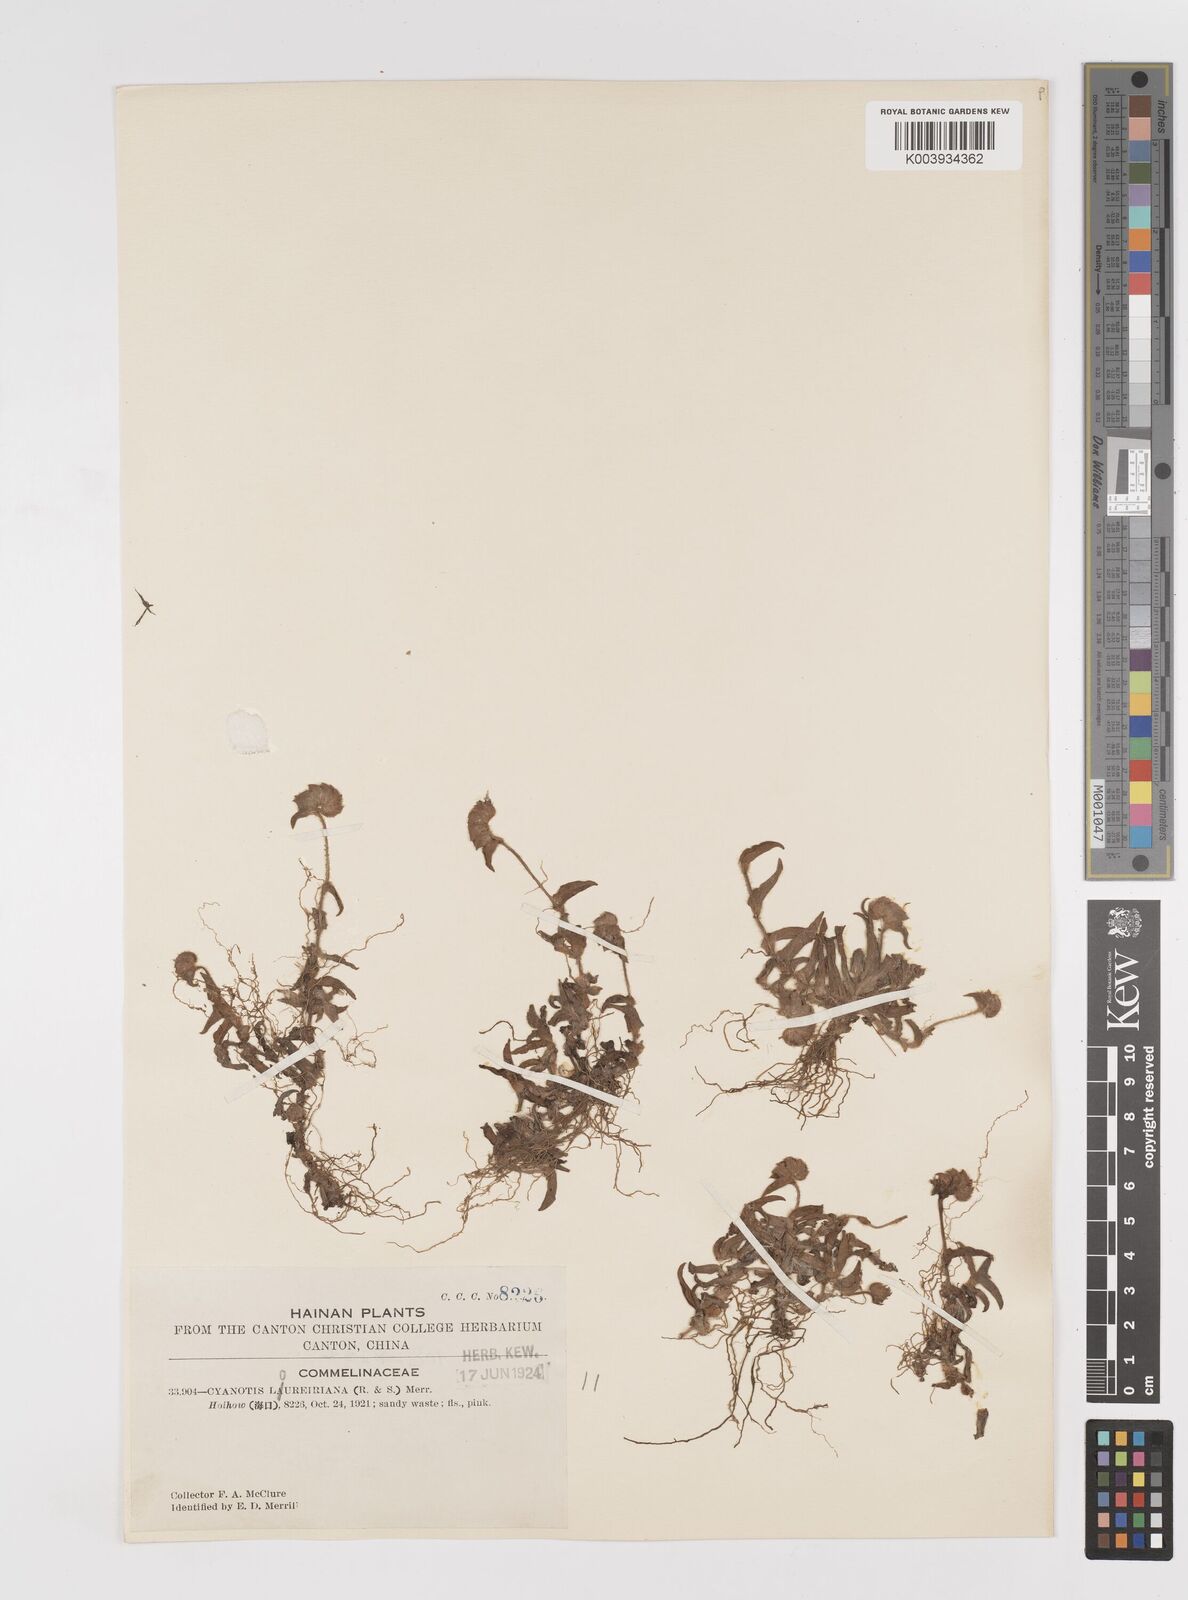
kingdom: Plantae
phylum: Tracheophyta
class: Liliopsida
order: Commelinales
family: Commelinaceae
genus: Cyanotis
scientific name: Cyanotis loureiroana
